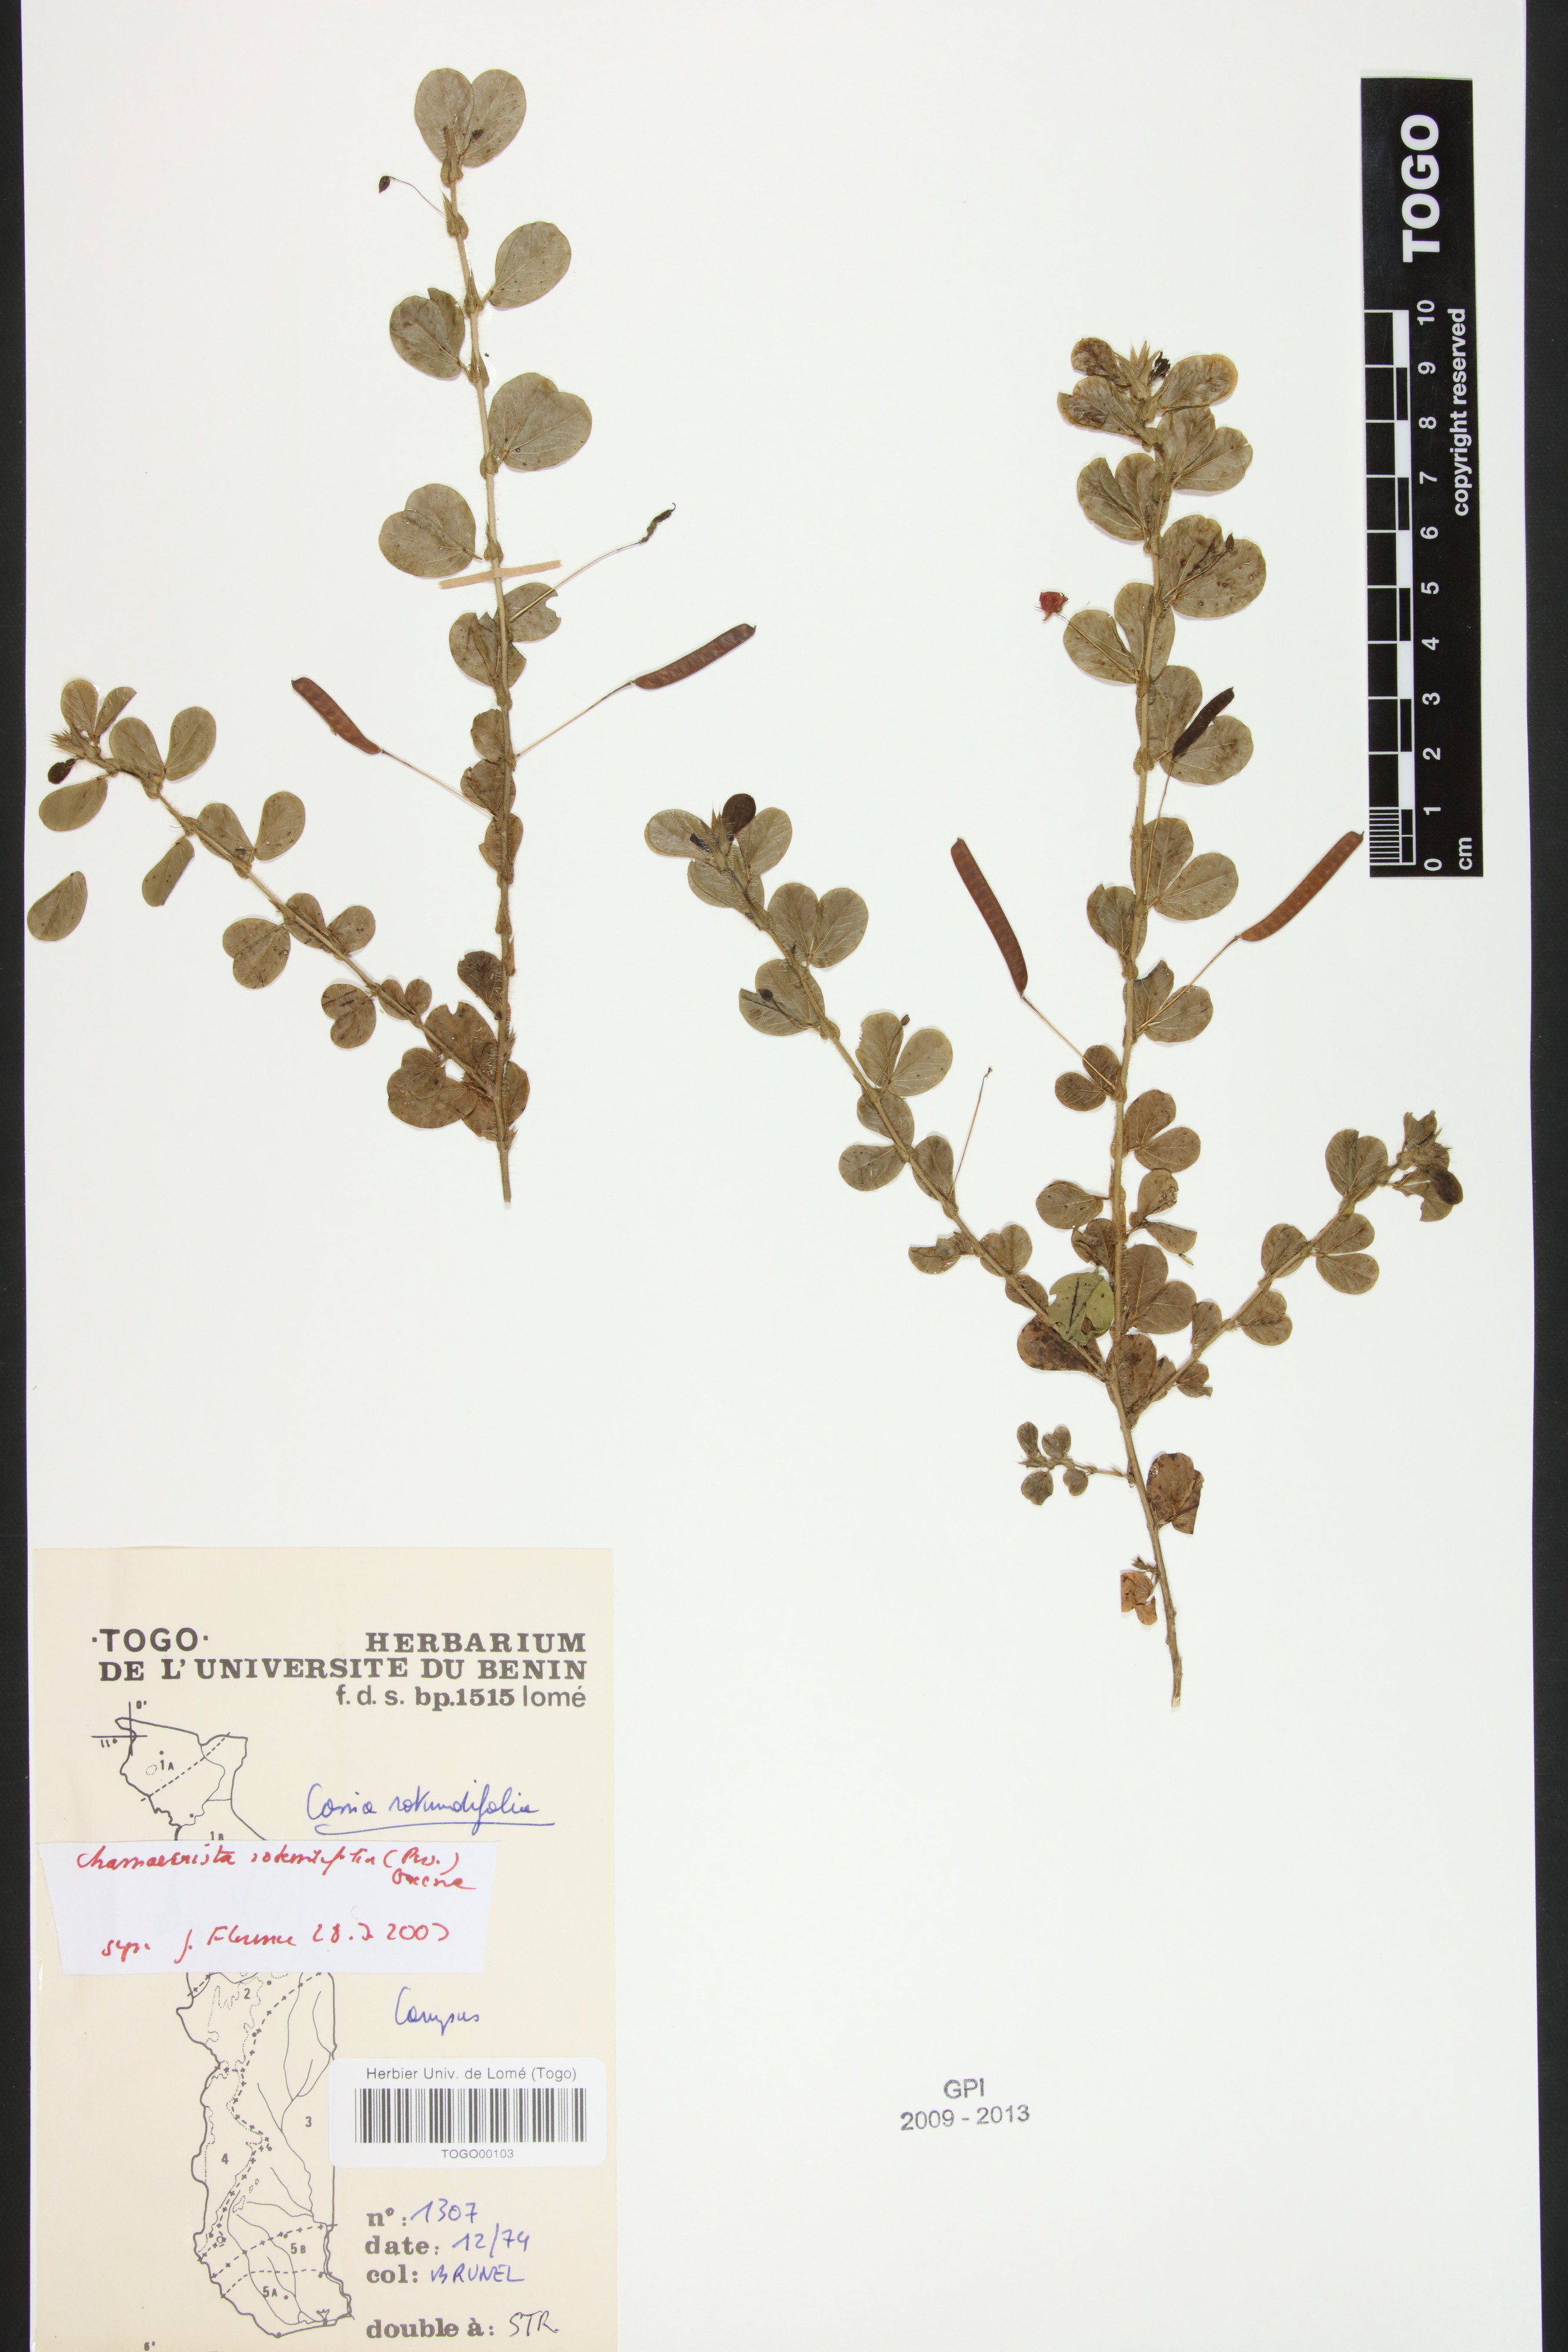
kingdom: Plantae
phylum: Tracheophyta
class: Magnoliopsida
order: Fabales
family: Fabaceae
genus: Chamaecrista
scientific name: Chamaecrista rotundifolia
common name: Round-leaf cassia
